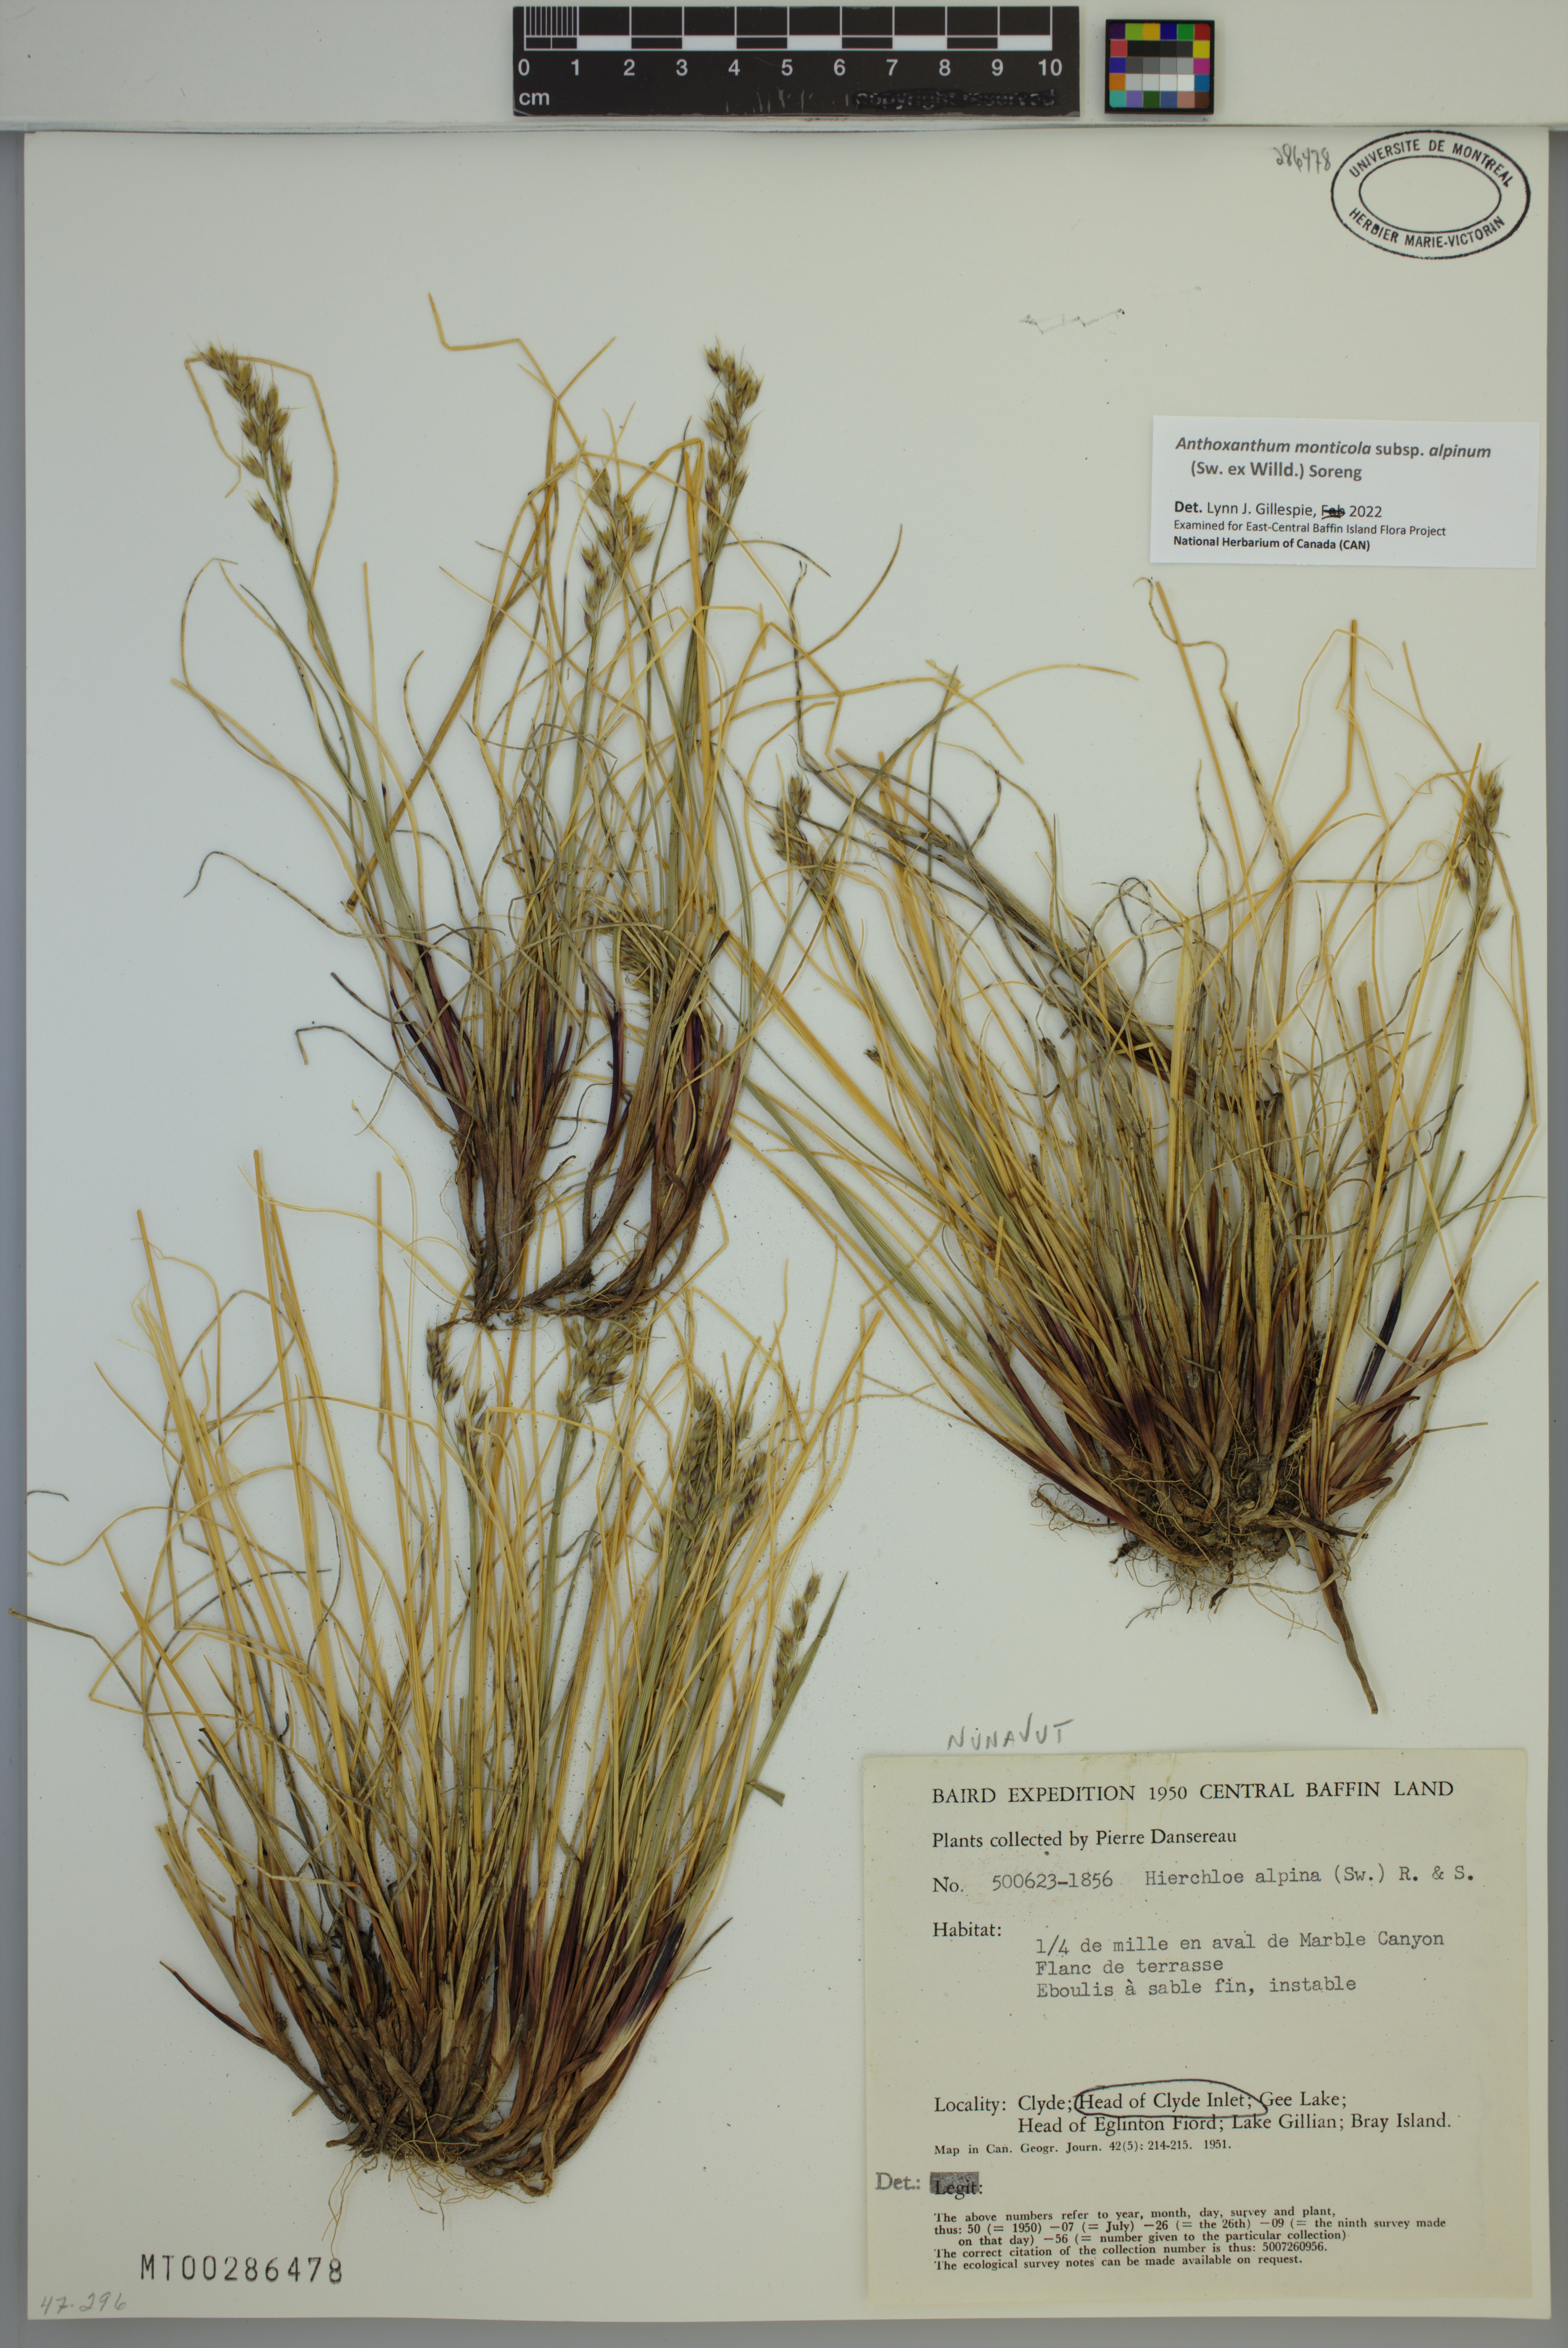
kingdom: Plantae
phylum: Tracheophyta
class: Liliopsida
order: Poales
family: Poaceae
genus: Anthoxanthum
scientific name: Anthoxanthum monticola
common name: Alpine sweetgrass
